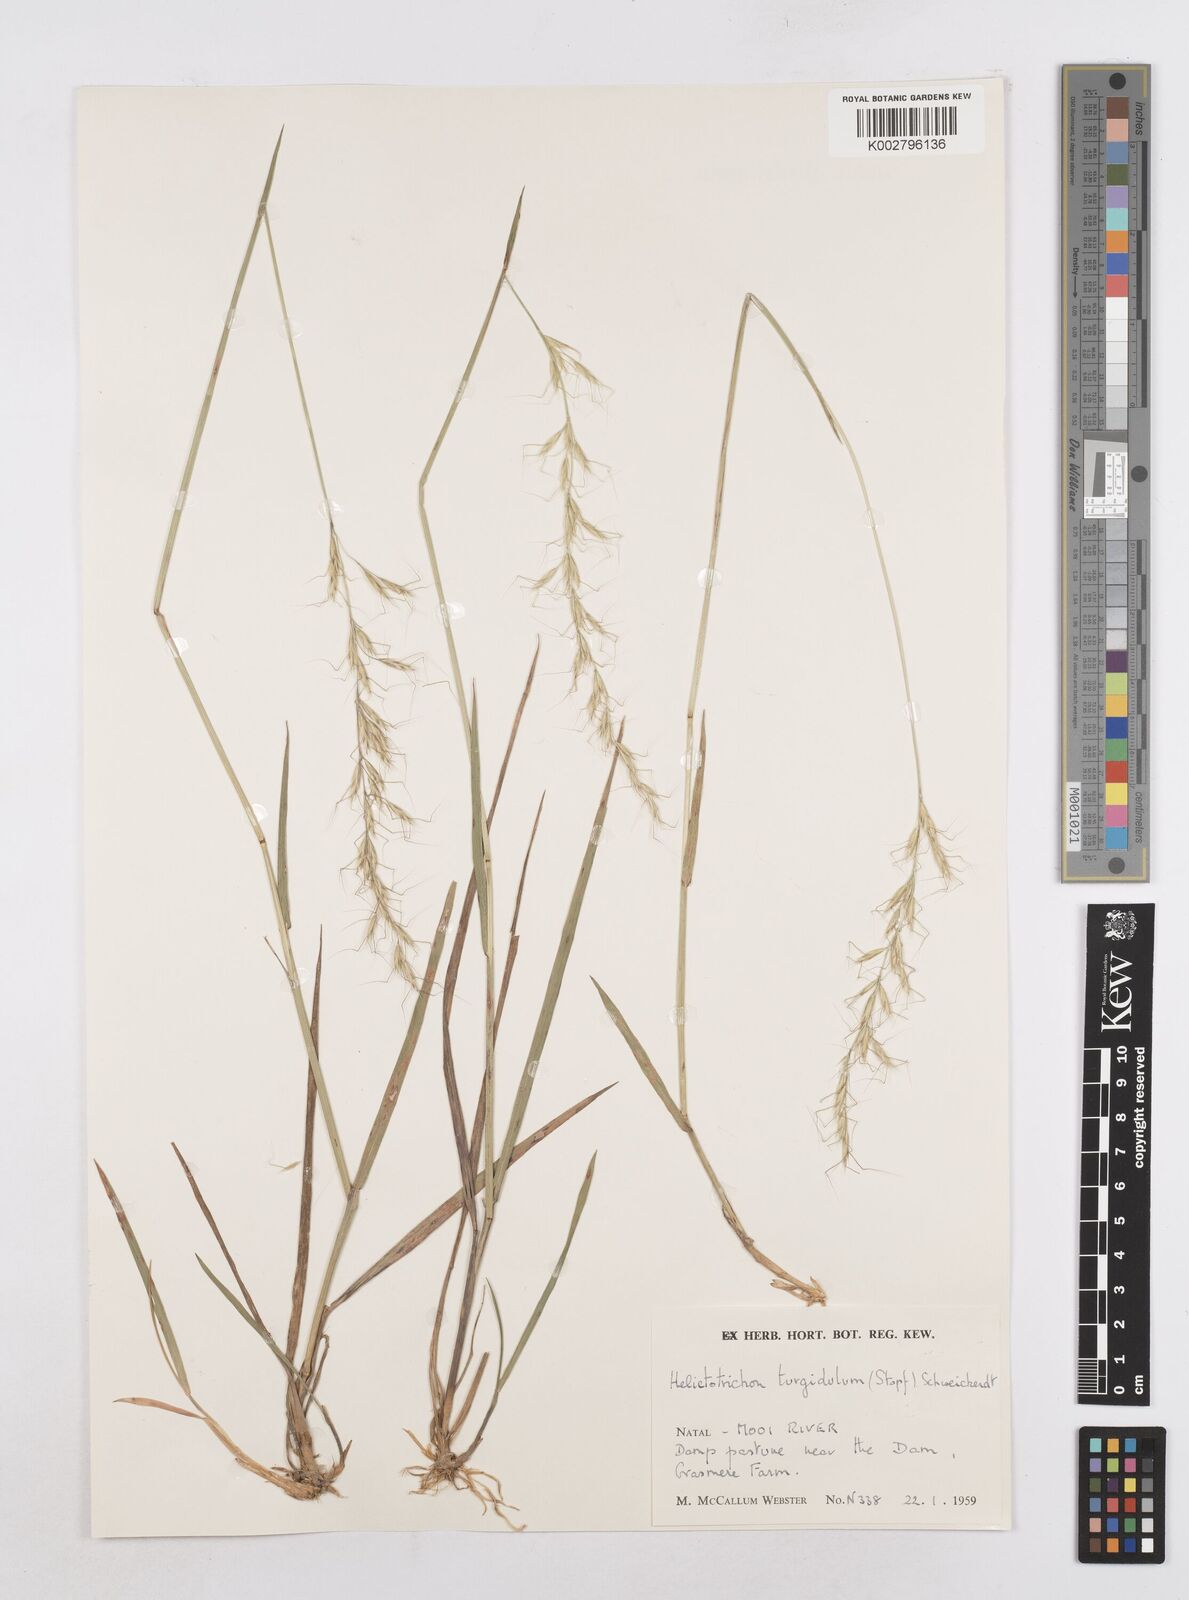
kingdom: Plantae
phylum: Tracheophyta
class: Liliopsida
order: Poales
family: Poaceae
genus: Trisetopsis
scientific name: Trisetopsis imberbis
